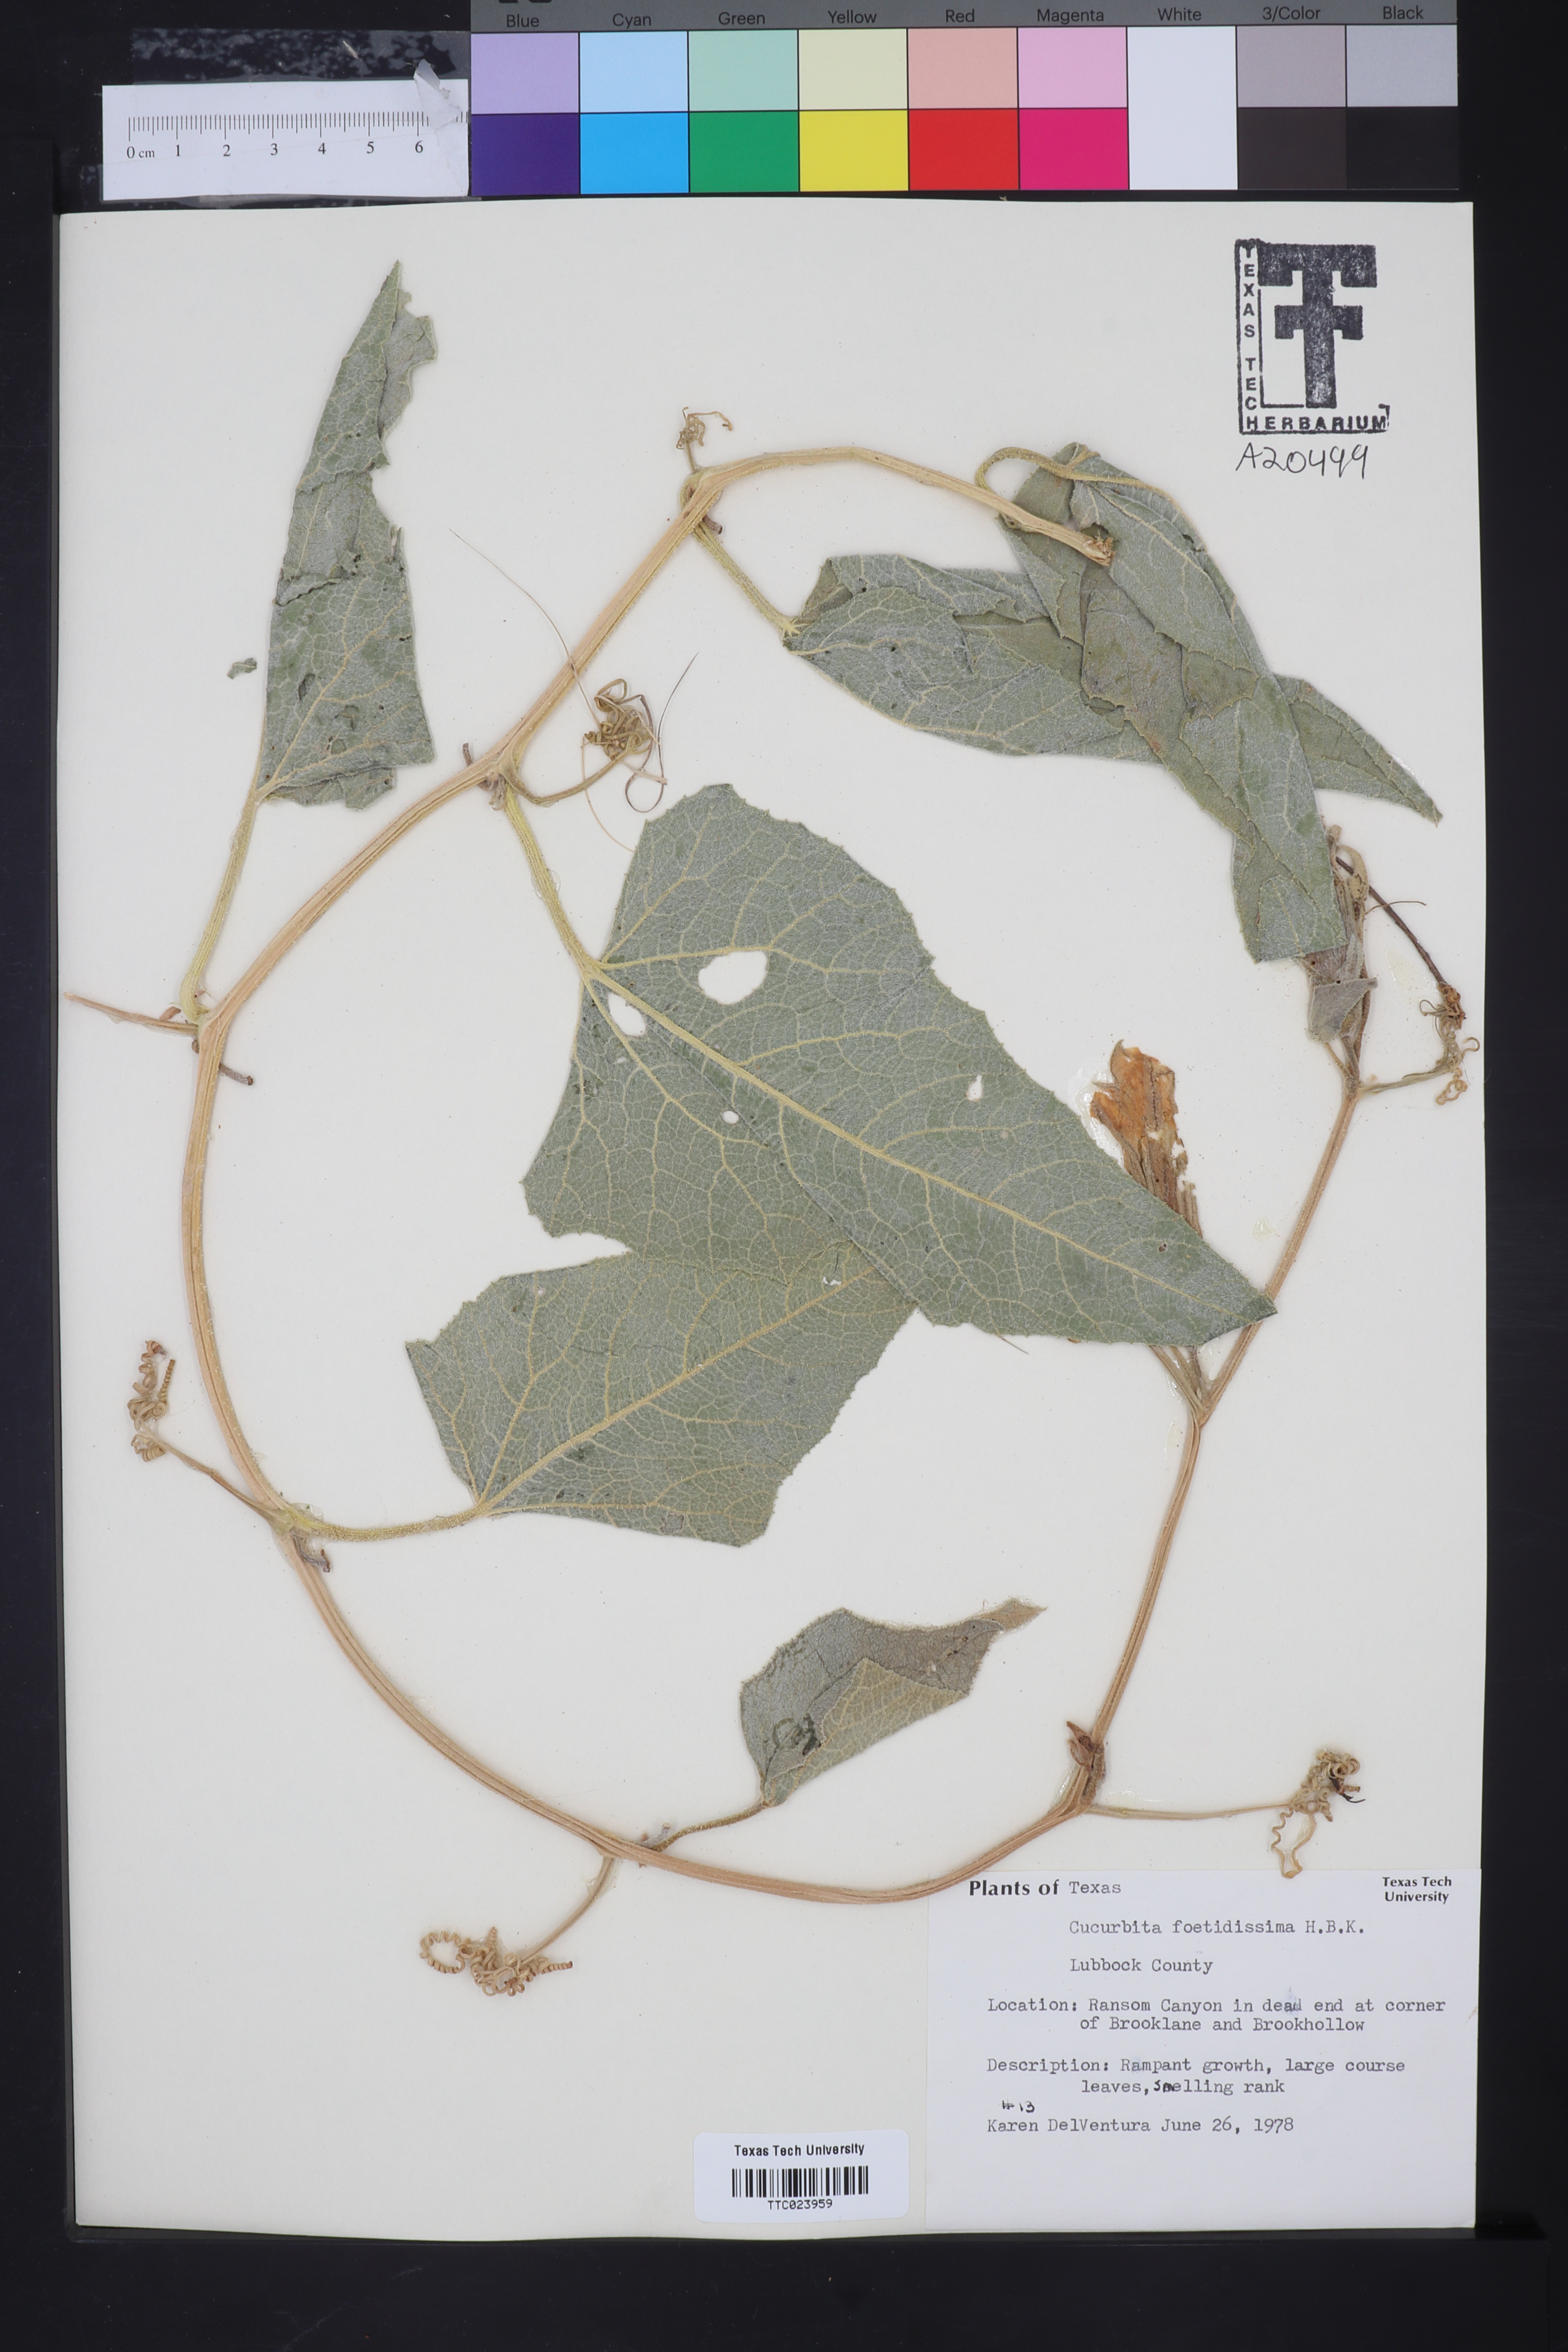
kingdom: Plantae
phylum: Tracheophyta
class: Magnoliopsida
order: Cucurbitales
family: Cucurbitaceae
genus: Cucurbita
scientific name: Cucurbita foetidissima
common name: Buffalo gourd
